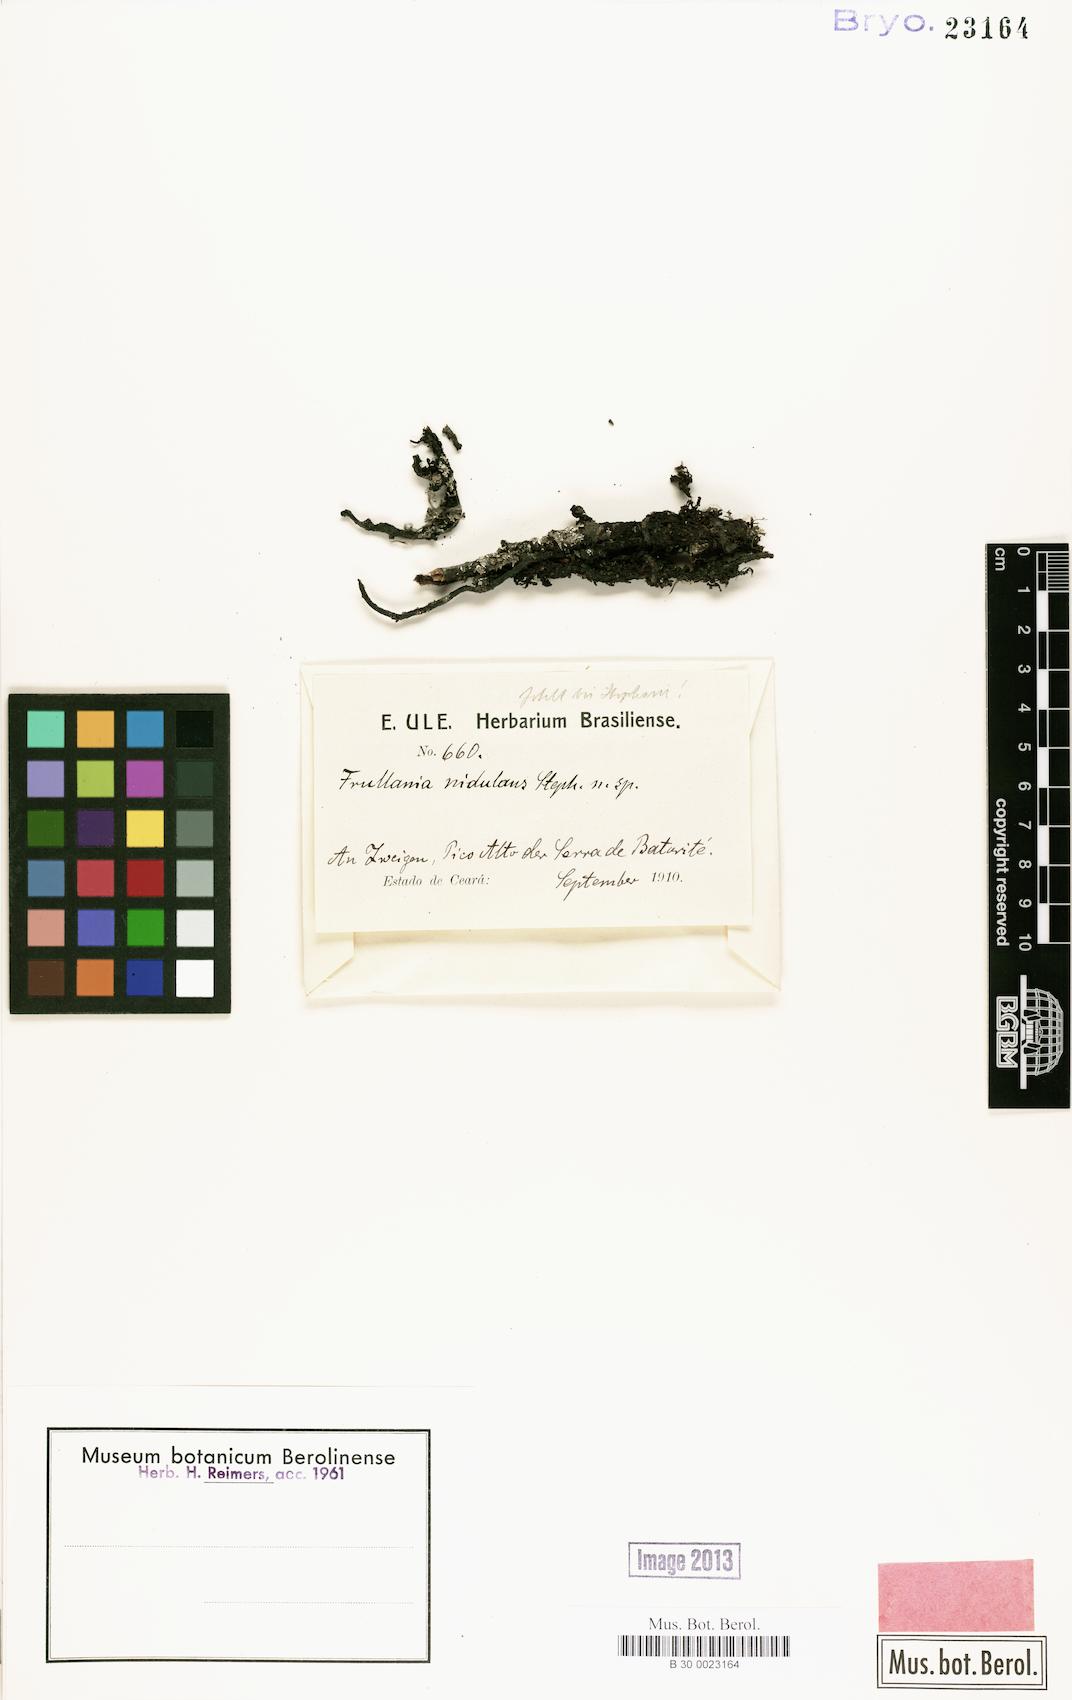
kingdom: Plantae
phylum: Marchantiophyta
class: Jungermanniopsida
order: Porellales
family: Frullaniaceae
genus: Frullania
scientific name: Frullania
